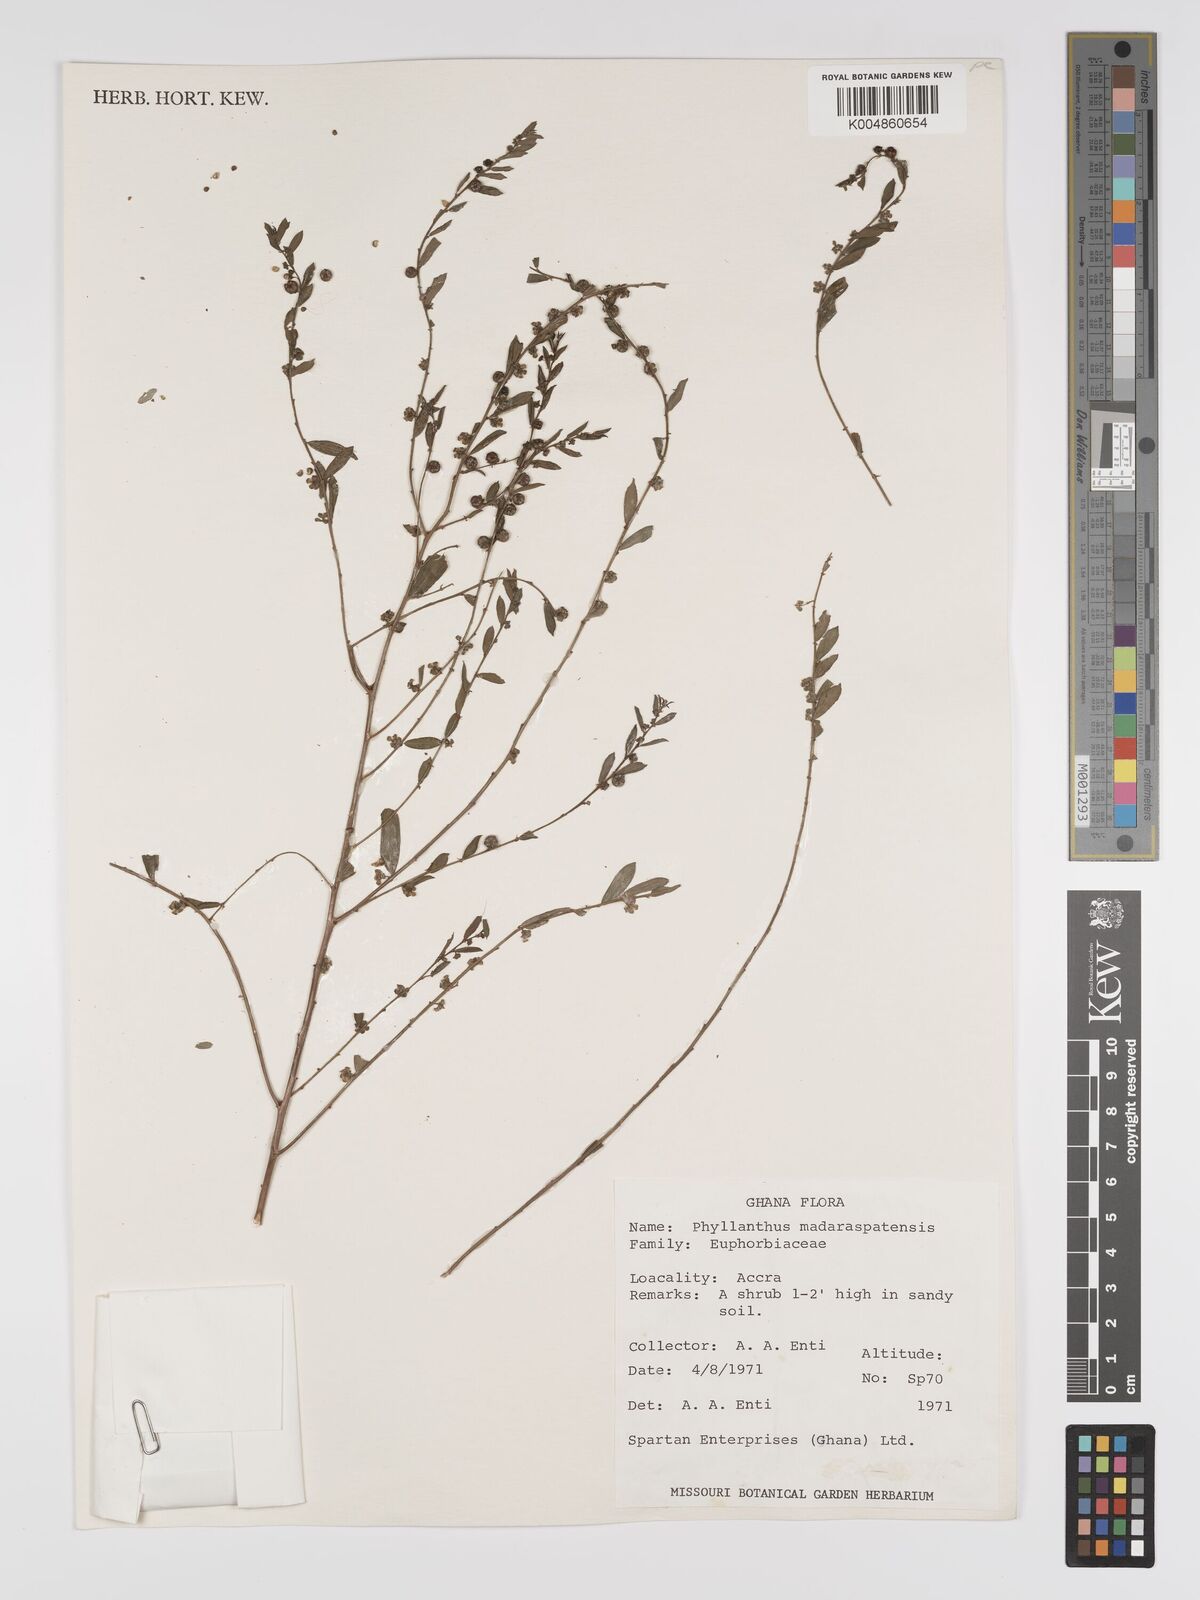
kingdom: Plantae
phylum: Tracheophyta
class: Magnoliopsida
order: Malpighiales
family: Phyllanthaceae
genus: Phyllanthus
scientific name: Phyllanthus urinaria
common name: Chamber bitter
